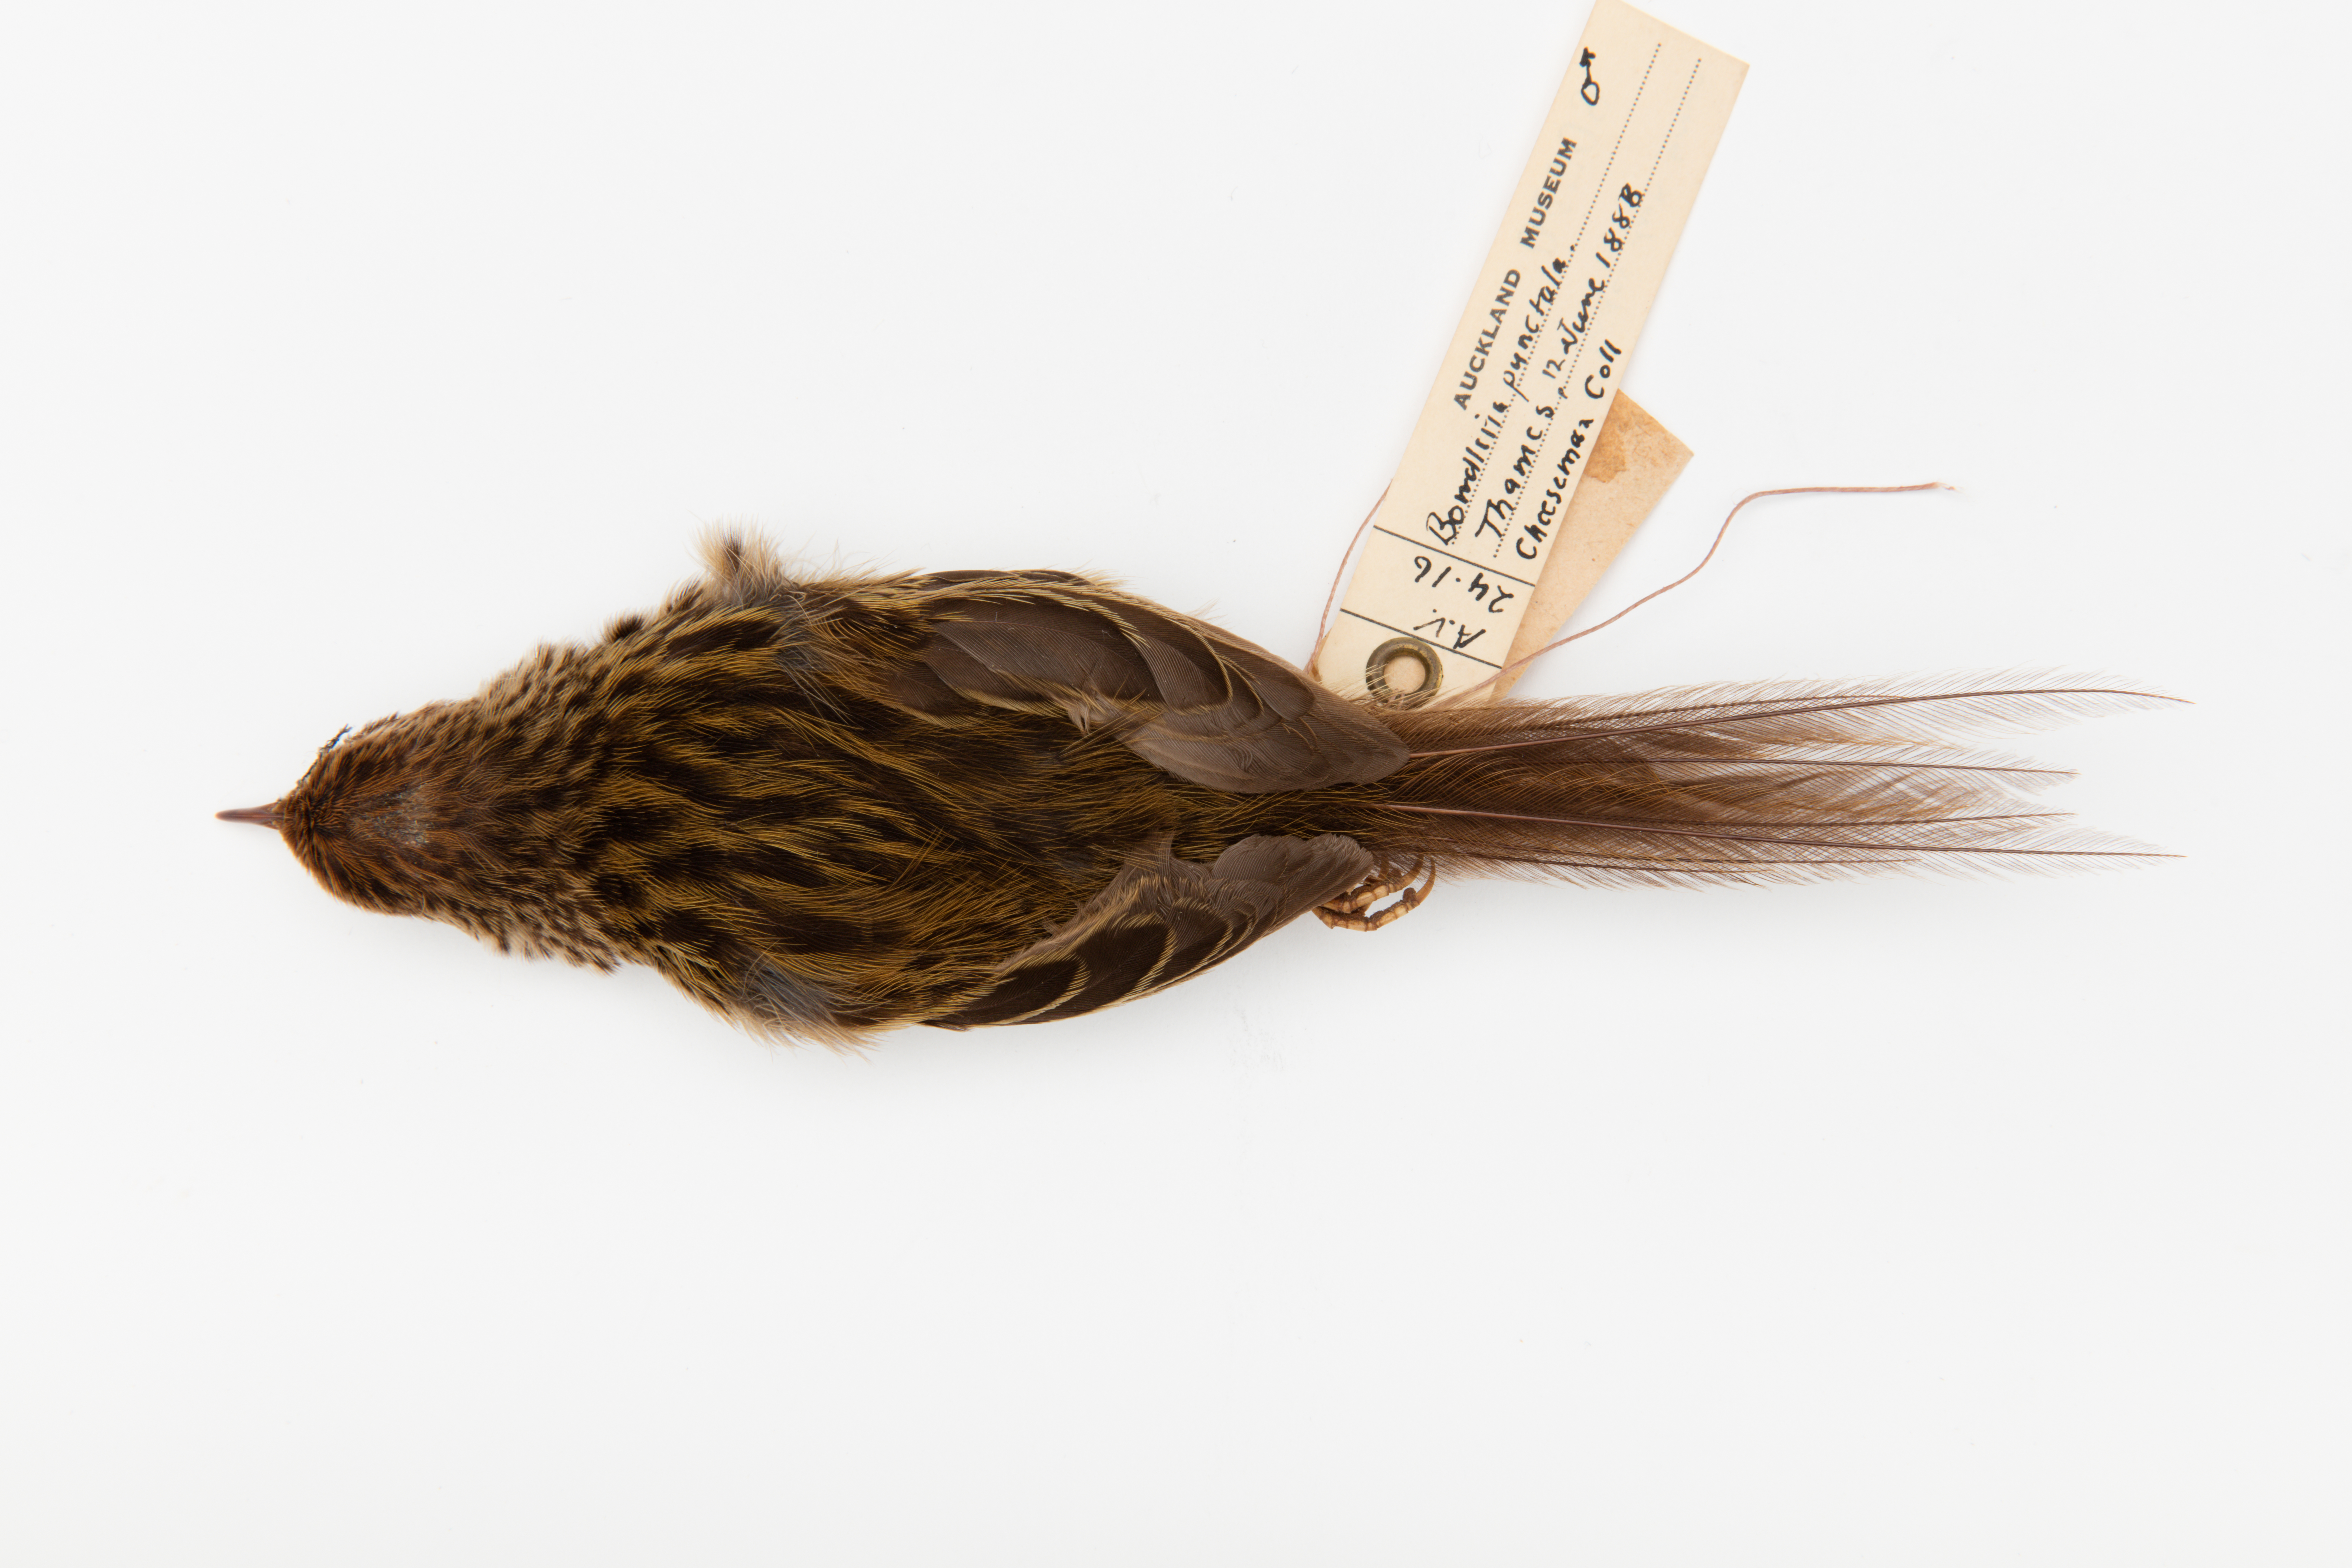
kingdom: Animalia
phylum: Chordata
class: Aves
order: Passeriformes
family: Locustellidae
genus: Megalurus
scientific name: Megalurus punctatus
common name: New zealand fernbird
